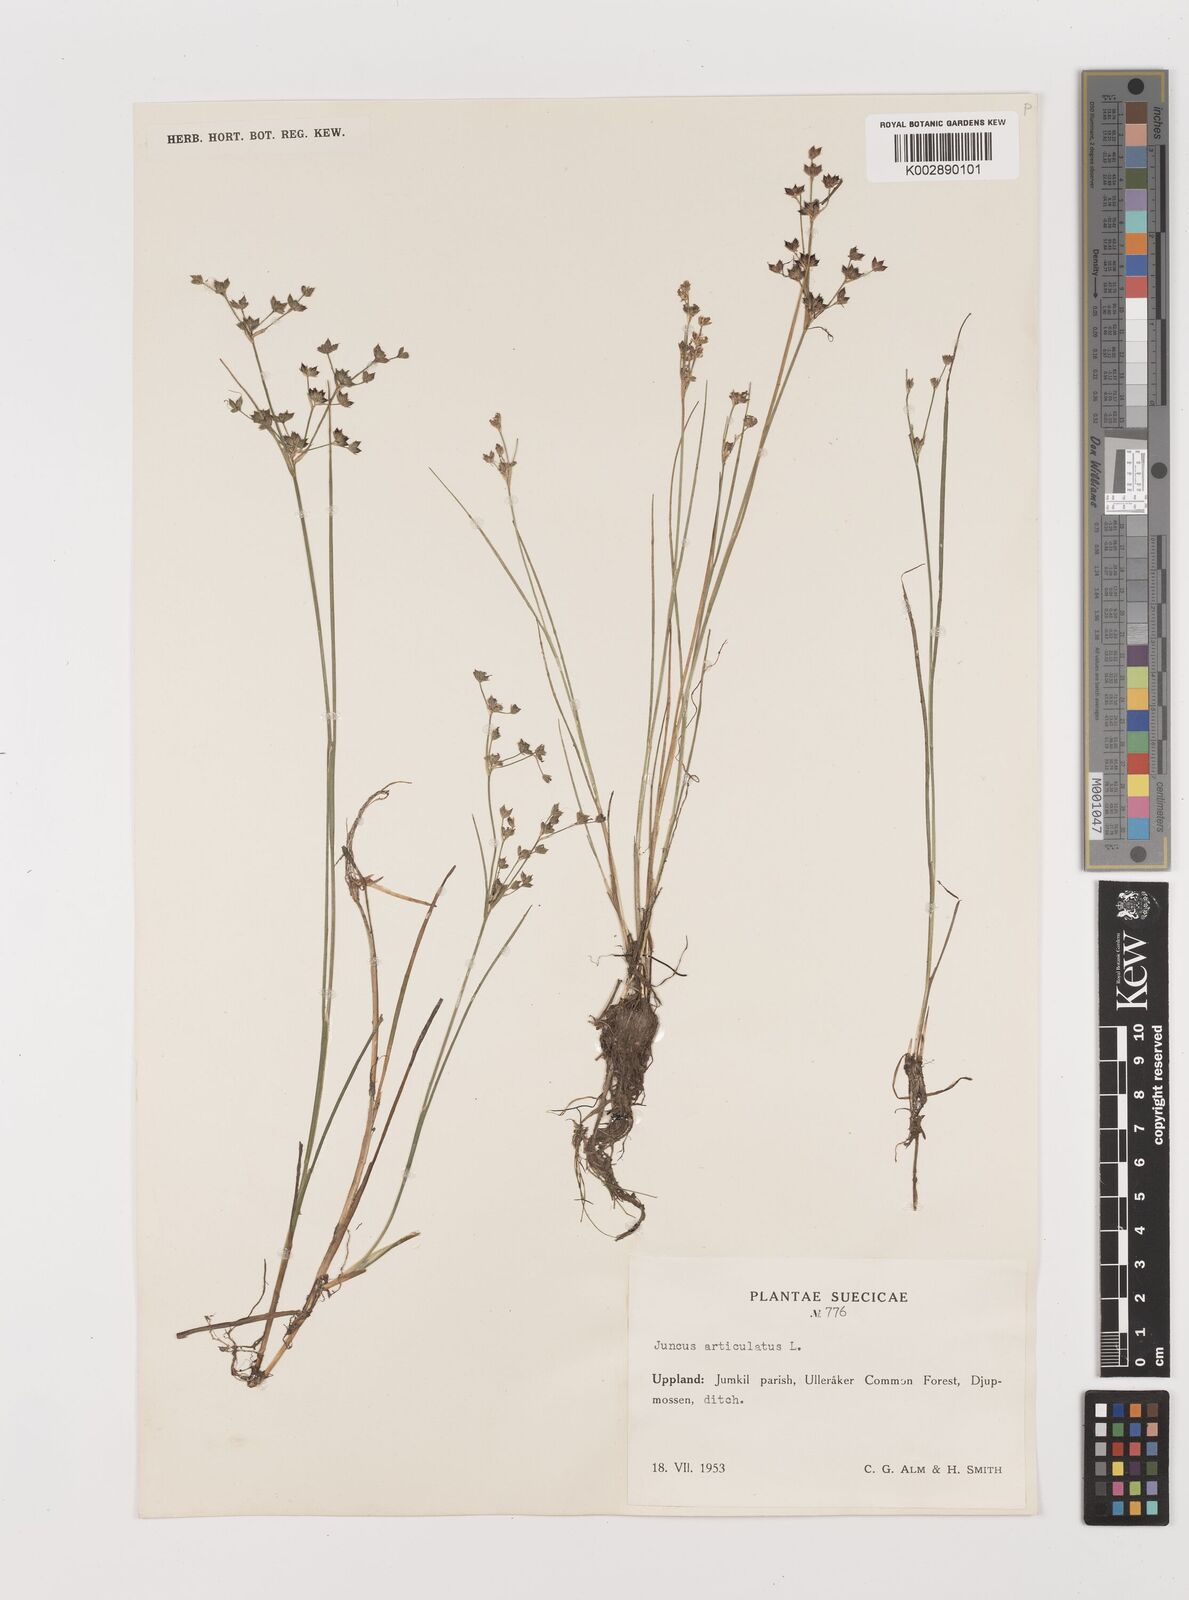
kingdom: Plantae
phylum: Tracheophyta
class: Liliopsida
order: Poales
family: Juncaceae
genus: Juncus
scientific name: Juncus articulatus
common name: Jointed rush
